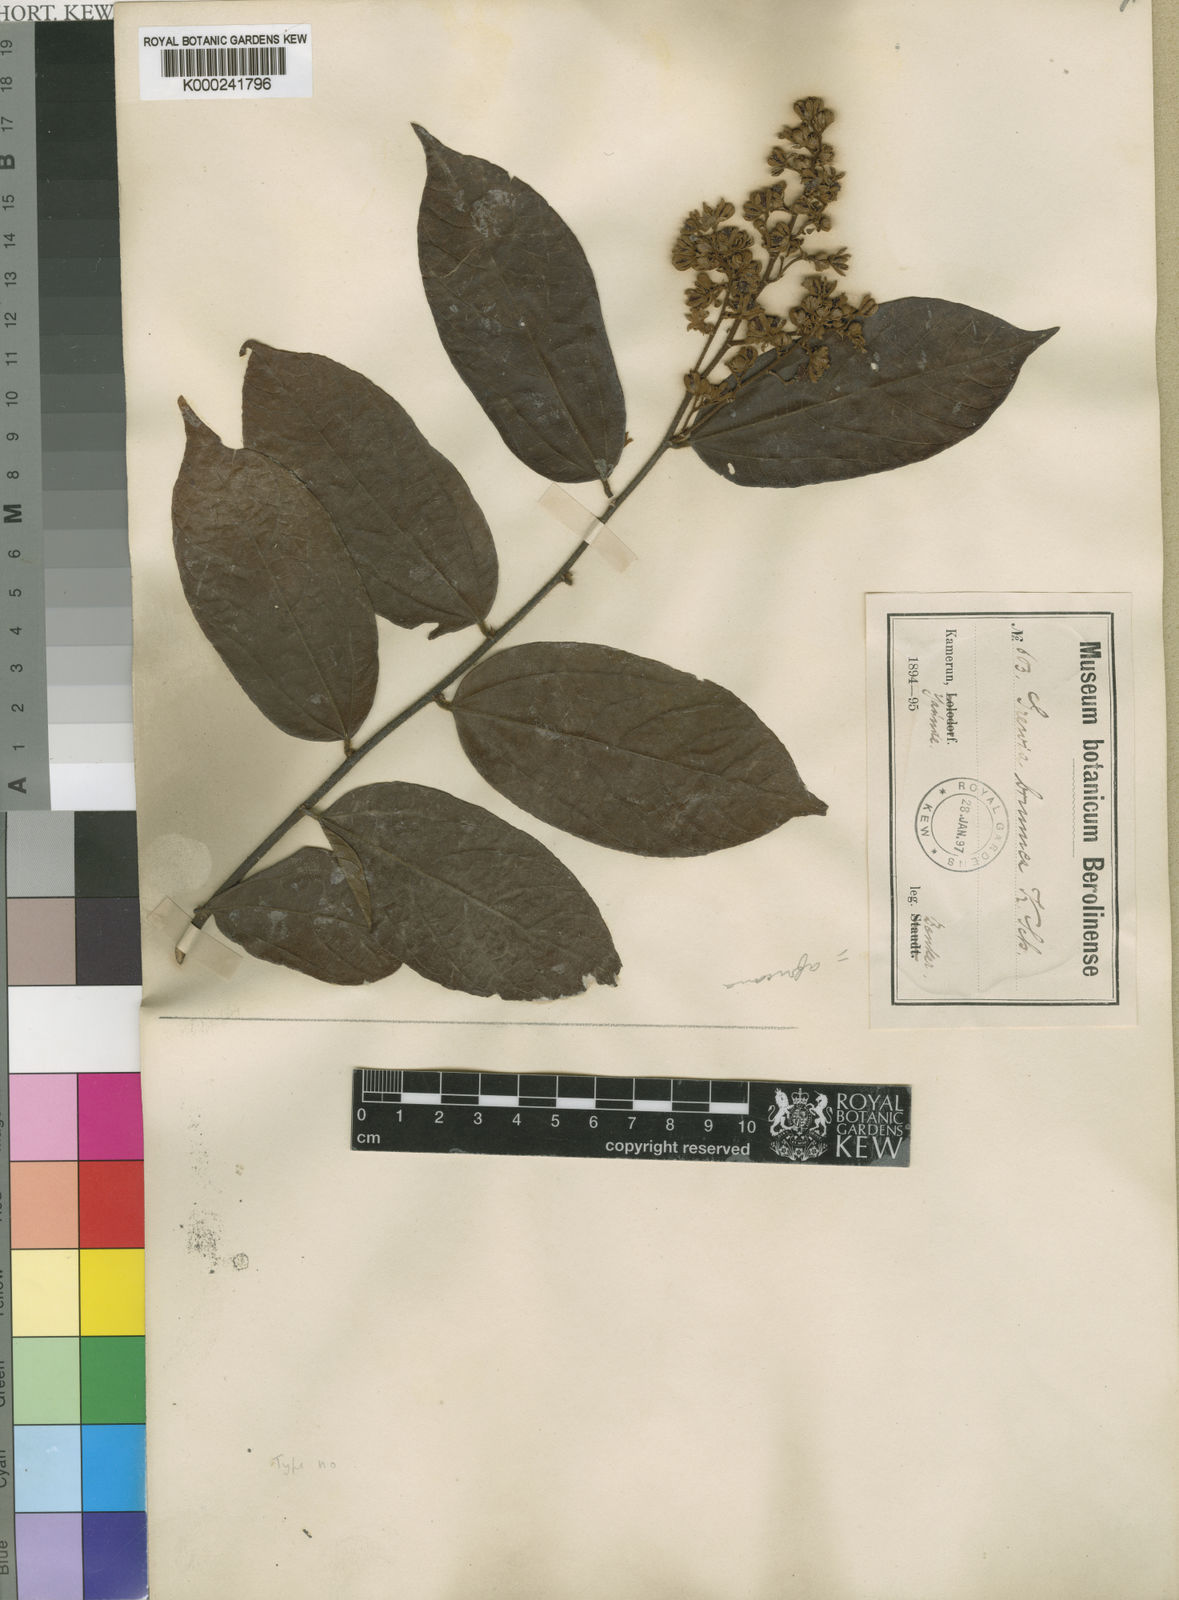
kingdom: Plantae
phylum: Tracheophyta
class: Magnoliopsida
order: Malvales
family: Malvaceae
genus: Microcos
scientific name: Microcos africana
